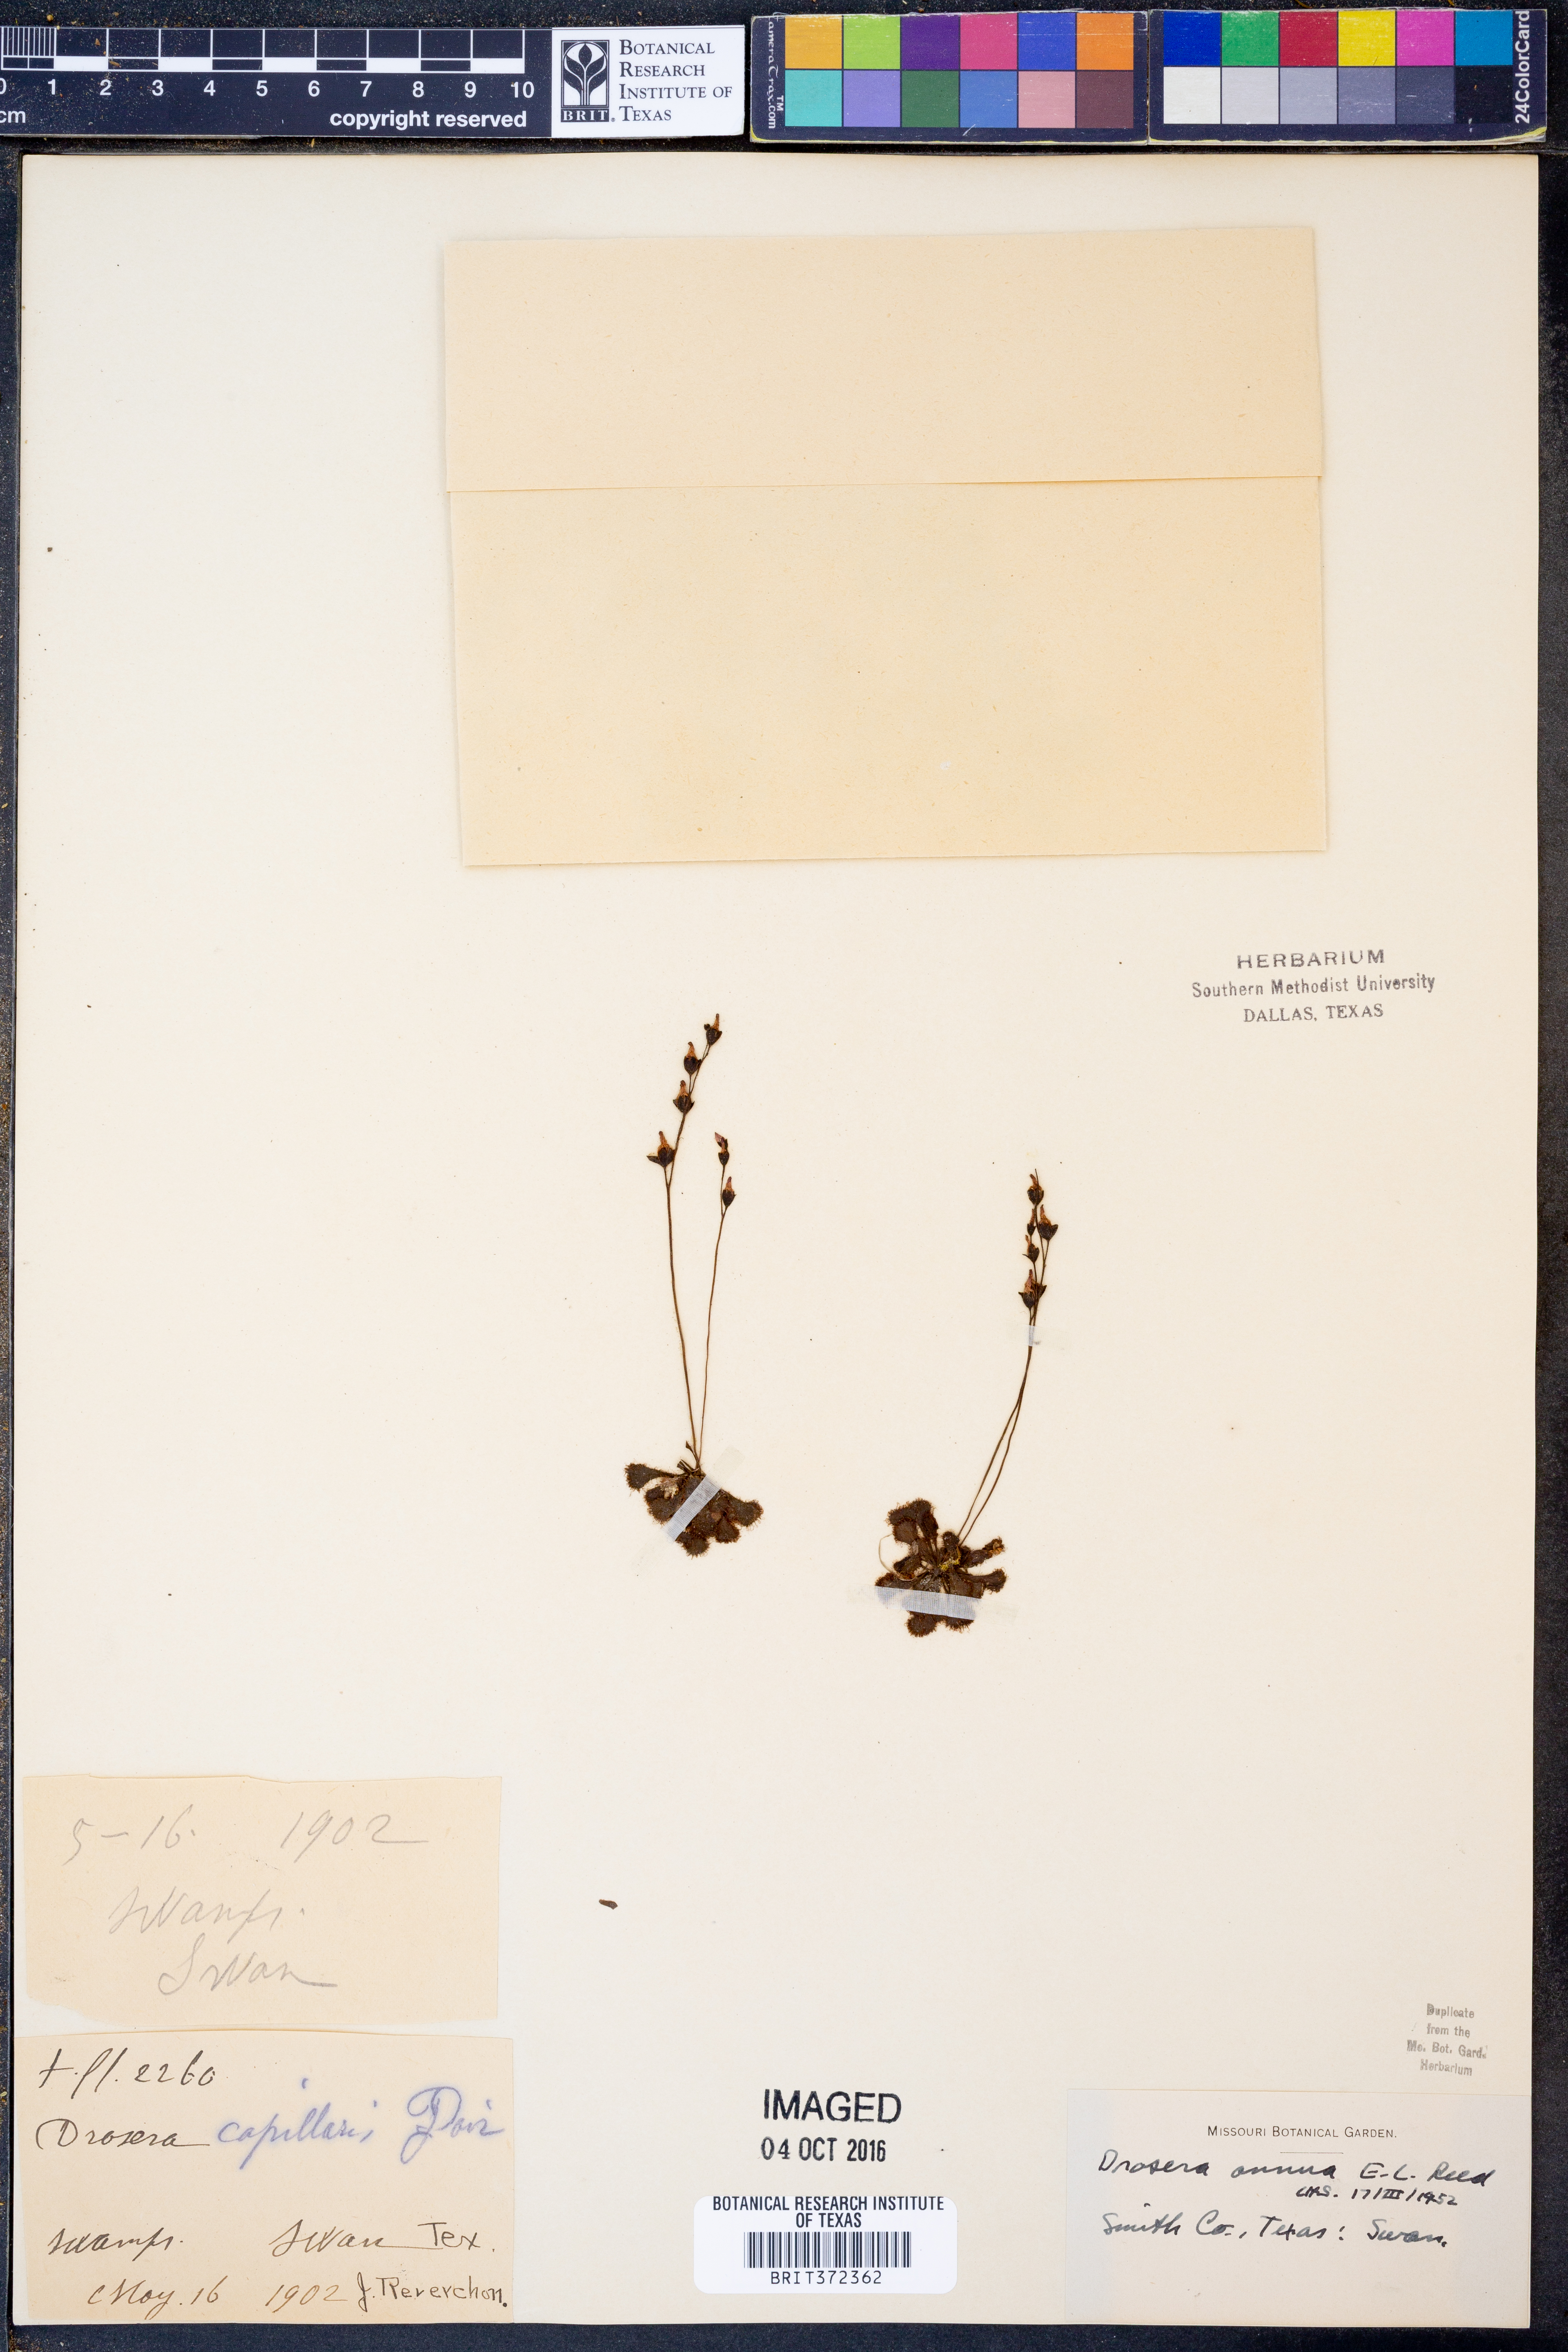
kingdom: Plantae
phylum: Tracheophyta
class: Magnoliopsida
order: Caryophyllales
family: Droseraceae
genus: Drosera
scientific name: Drosera brevifolia
